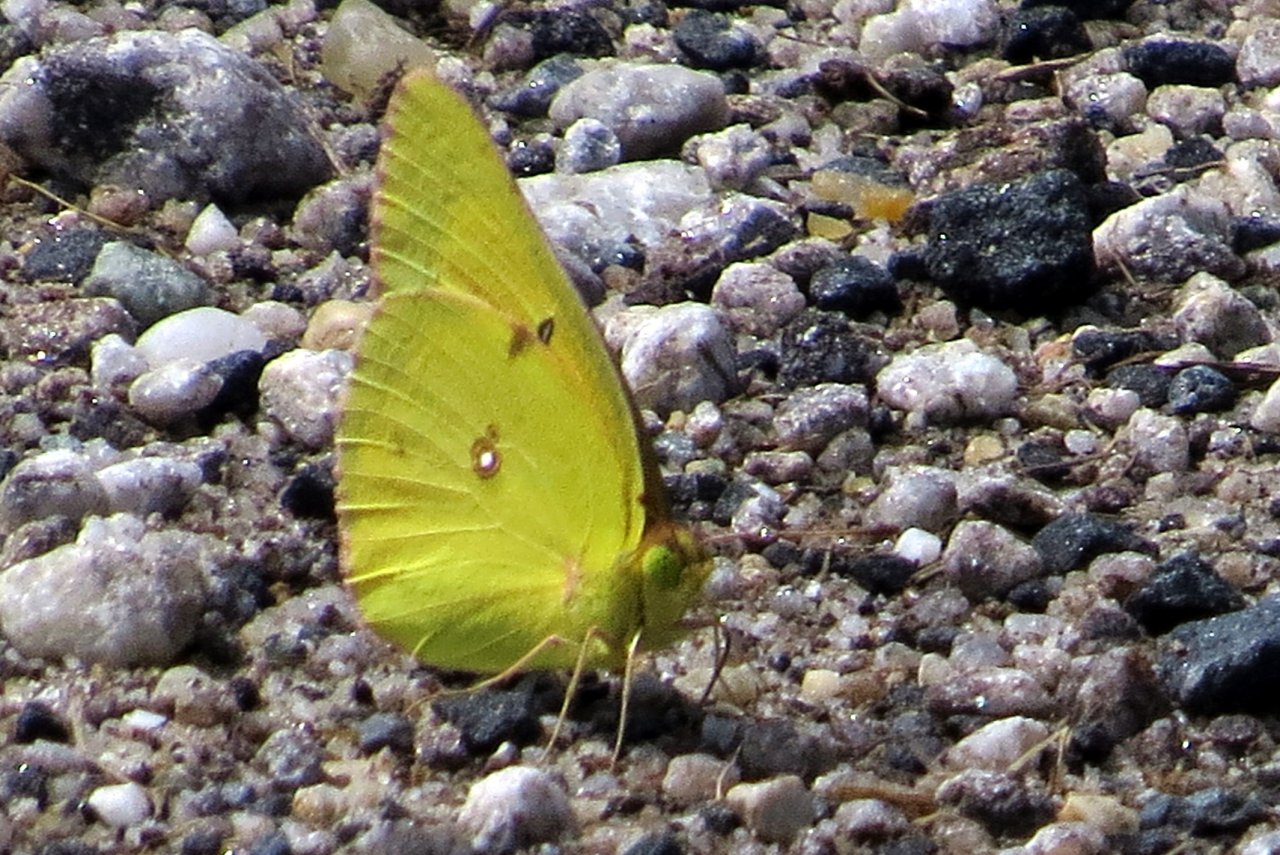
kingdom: Animalia
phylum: Arthropoda
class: Insecta
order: Lepidoptera
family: Pieridae
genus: Colias
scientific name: Colias eurytheme
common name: Orange Sulphur
